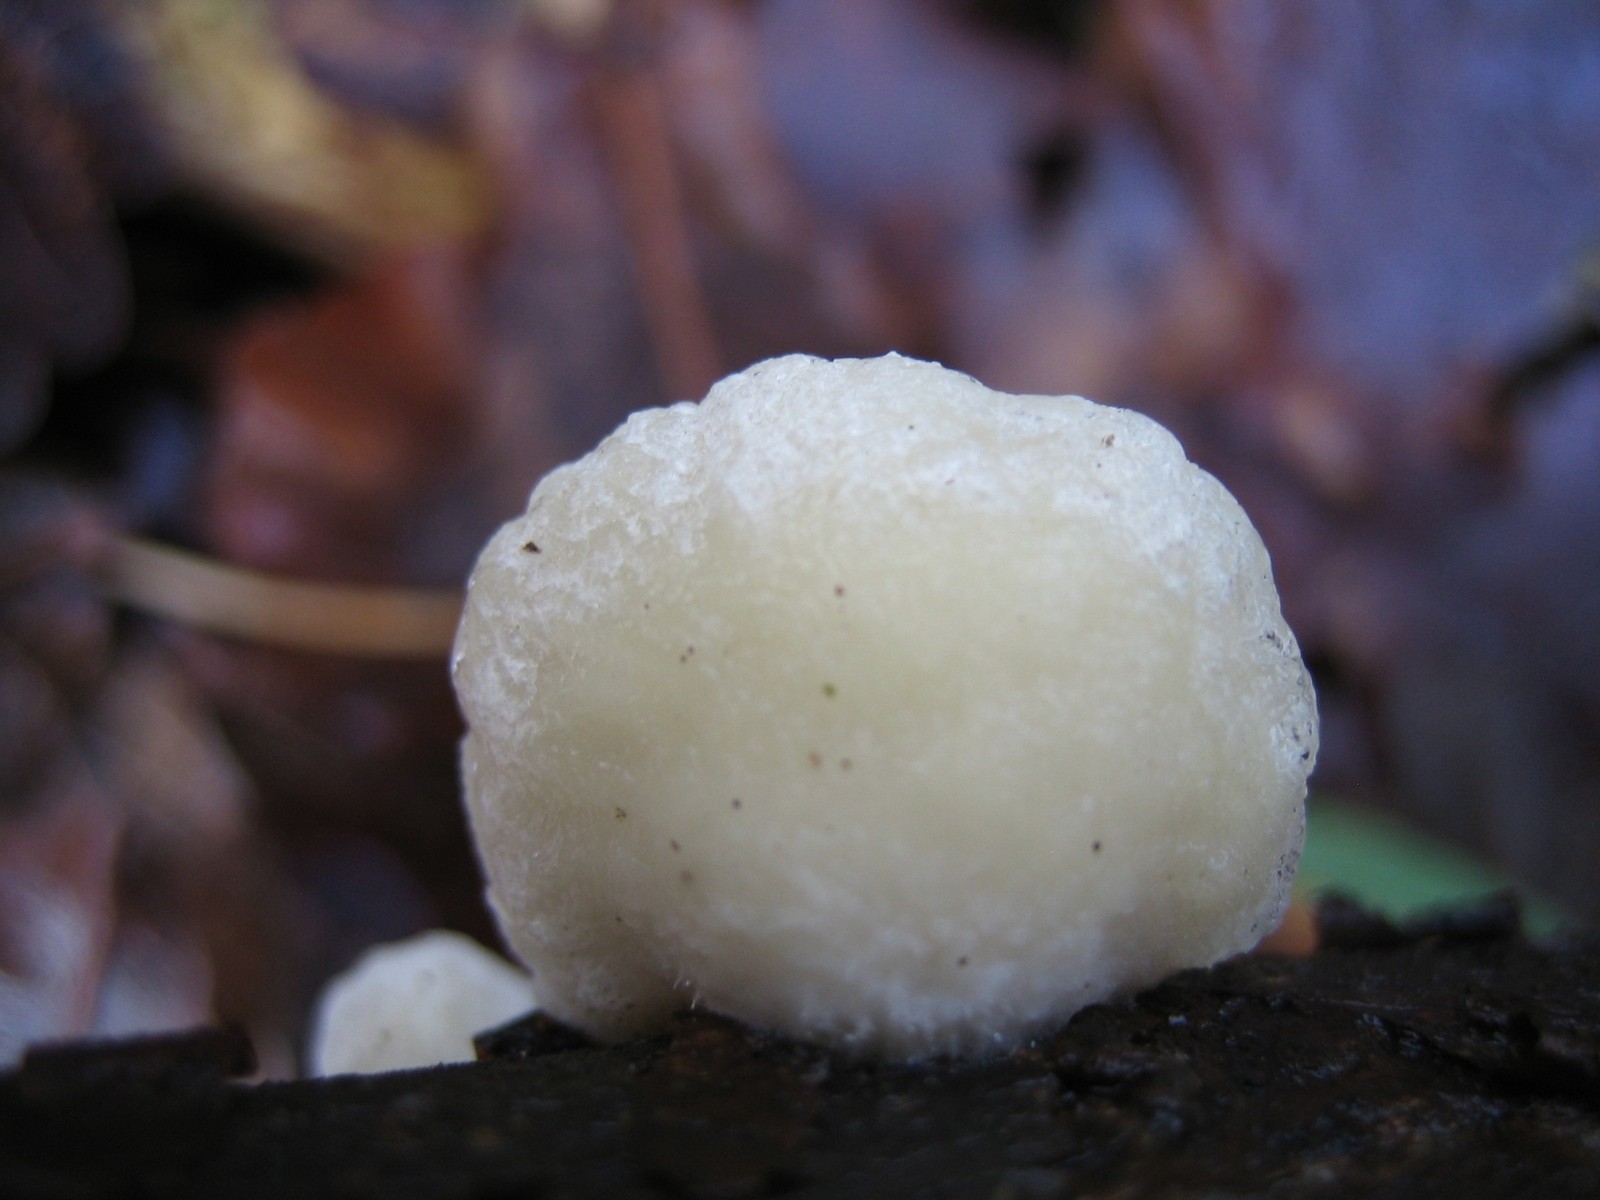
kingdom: Fungi
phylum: Basidiomycota
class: Agaricomycetes
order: Agaricales
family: Crepidotaceae
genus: Crepidotus
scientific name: Crepidotus
